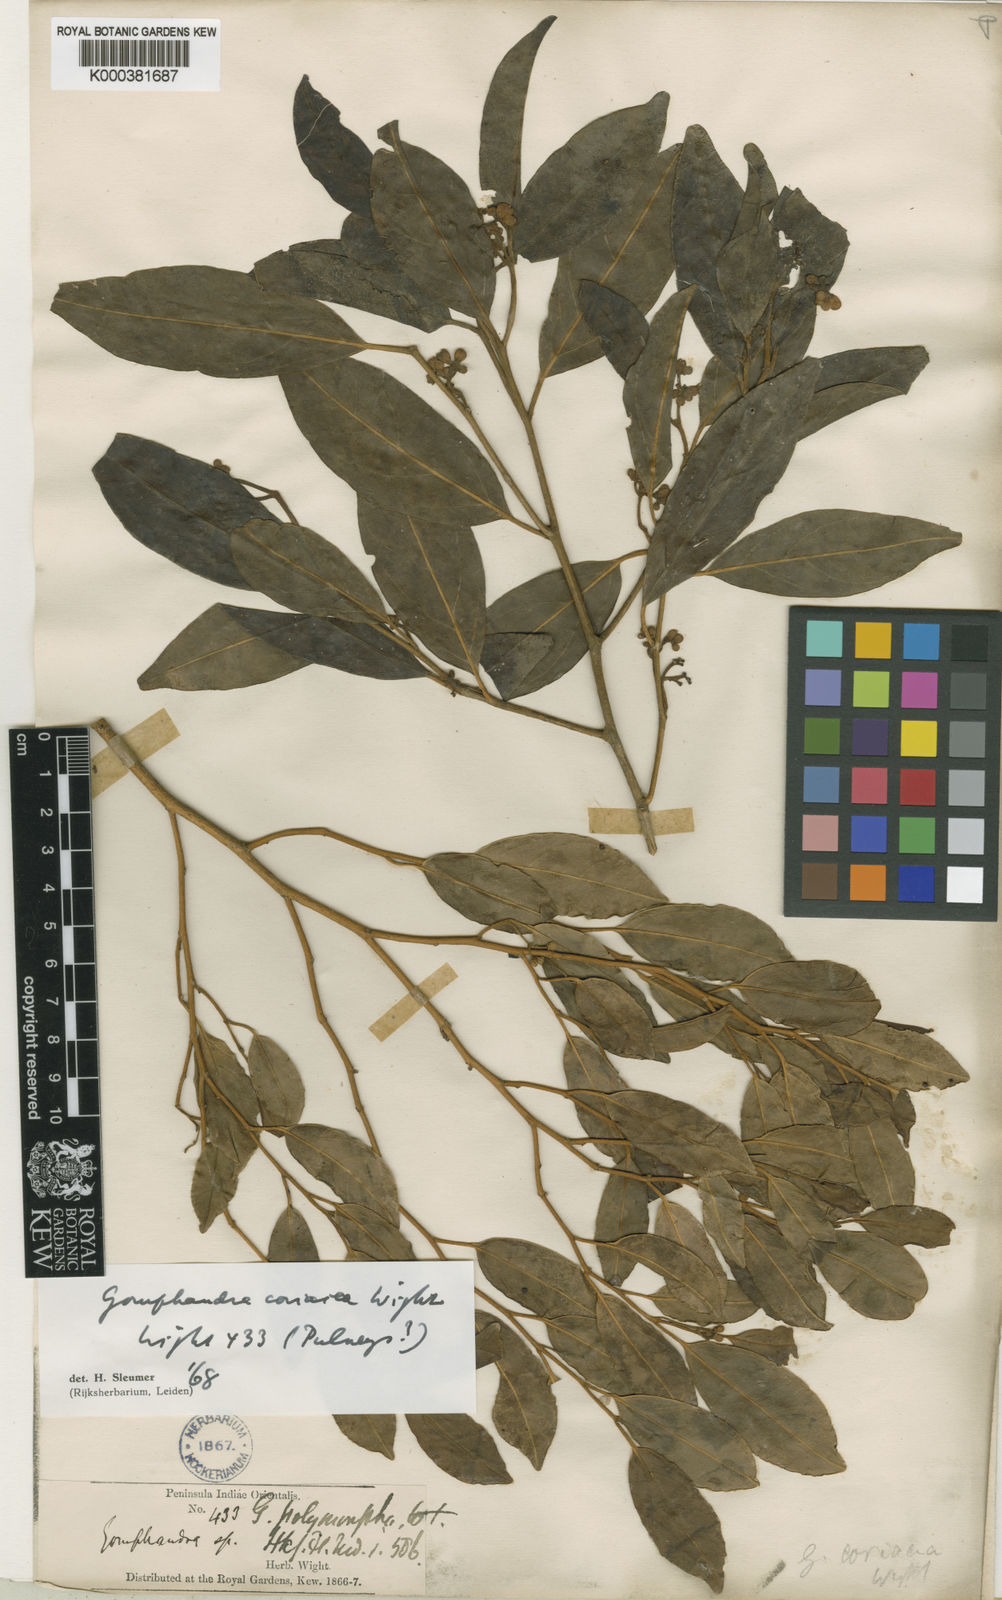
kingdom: Plantae
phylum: Tracheophyta
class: Magnoliopsida
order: Cardiopteridales
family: Stemonuraceae
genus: Gomphandra
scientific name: Gomphandra coriacea
